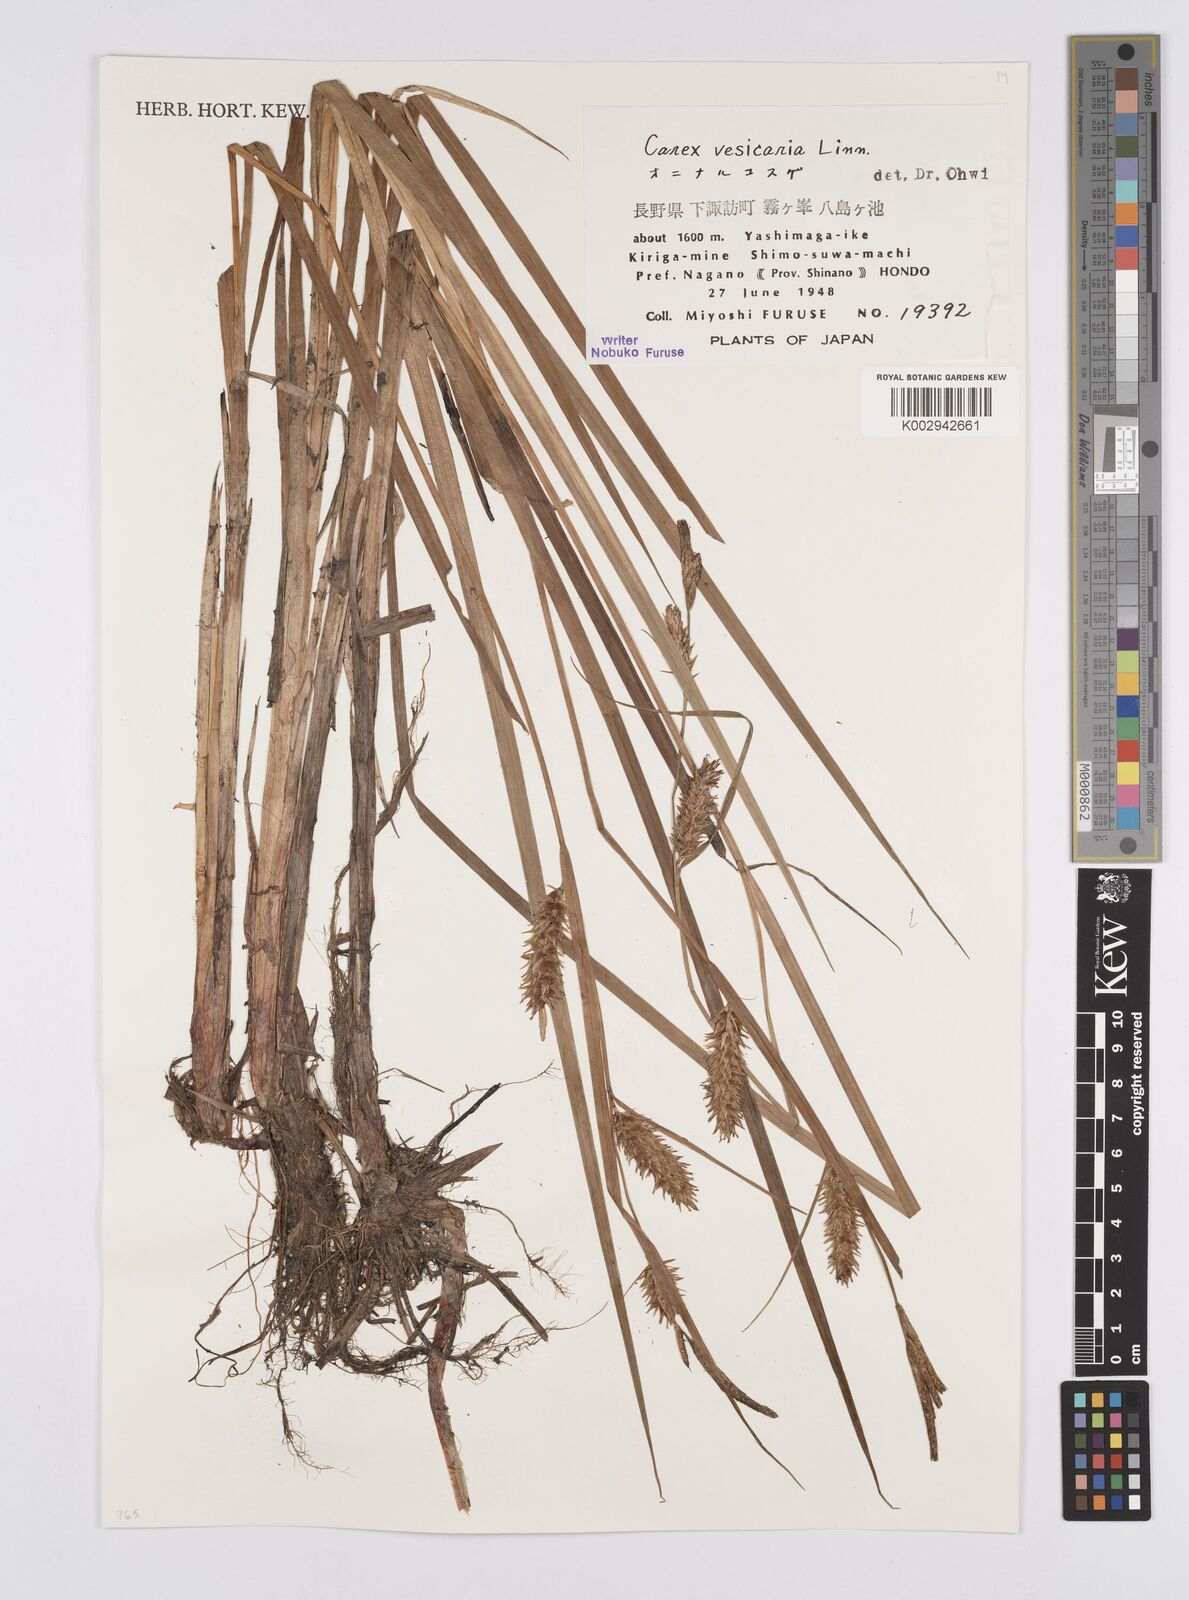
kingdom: Plantae
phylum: Tracheophyta
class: Liliopsida
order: Poales
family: Cyperaceae
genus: Carex
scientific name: Carex vesicaria
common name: Bladder-sedge
